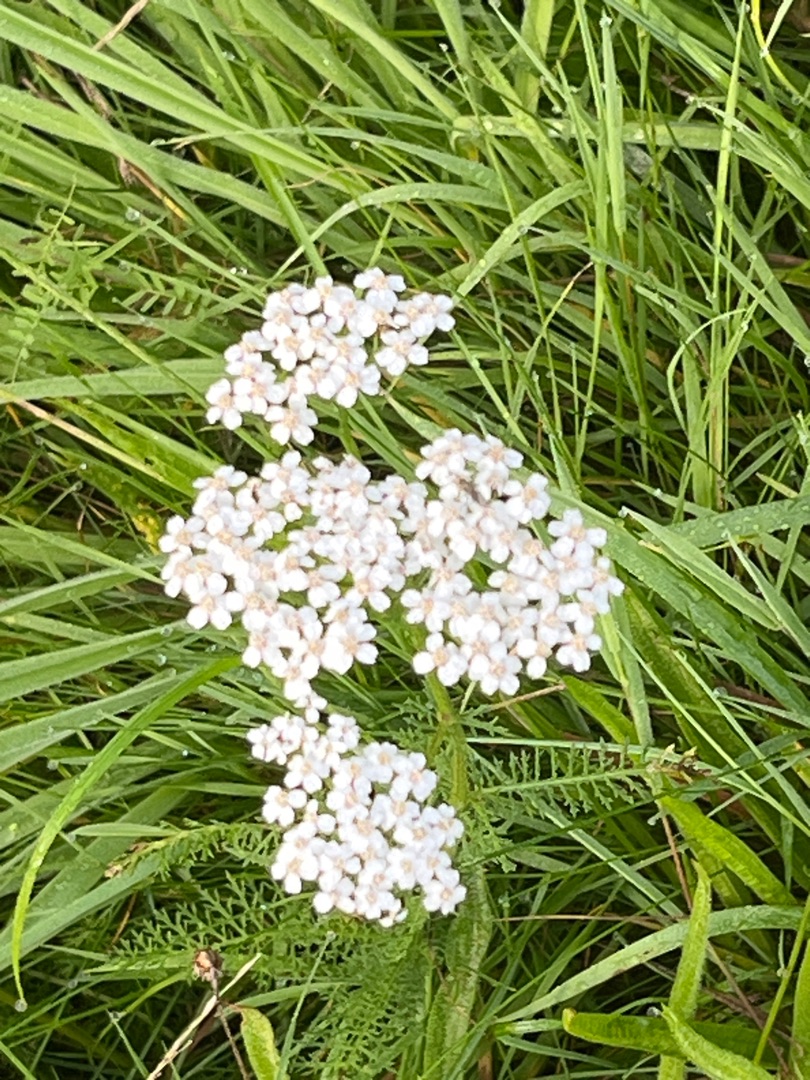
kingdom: Plantae
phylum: Tracheophyta
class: Magnoliopsida
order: Asterales
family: Asteraceae
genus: Achillea
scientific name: Achillea millefolium
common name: Almindelig røllike
